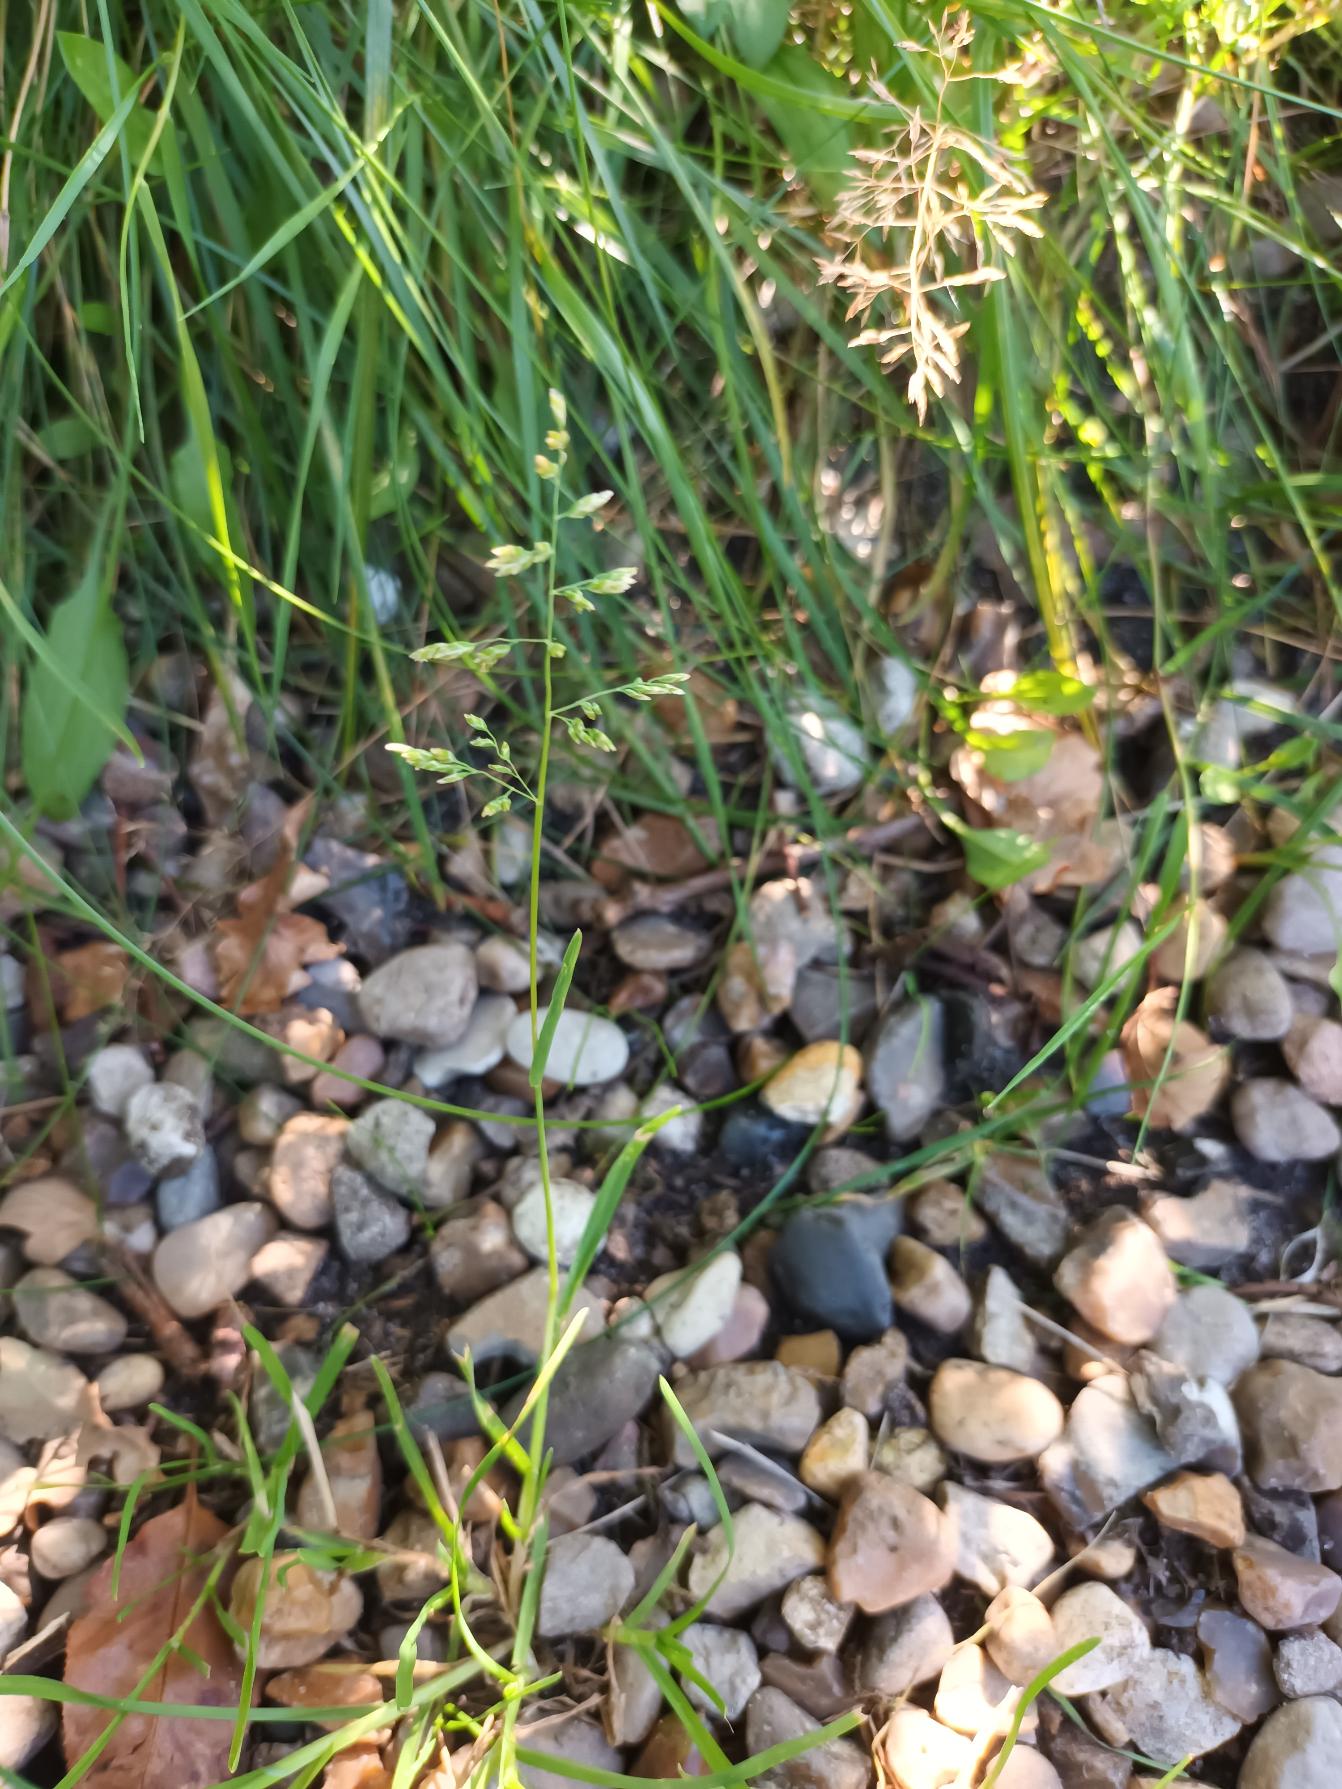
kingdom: Plantae
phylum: Tracheophyta
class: Liliopsida
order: Poales
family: Poaceae
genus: Poa
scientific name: Poa annua
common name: Enårig rapgræs
